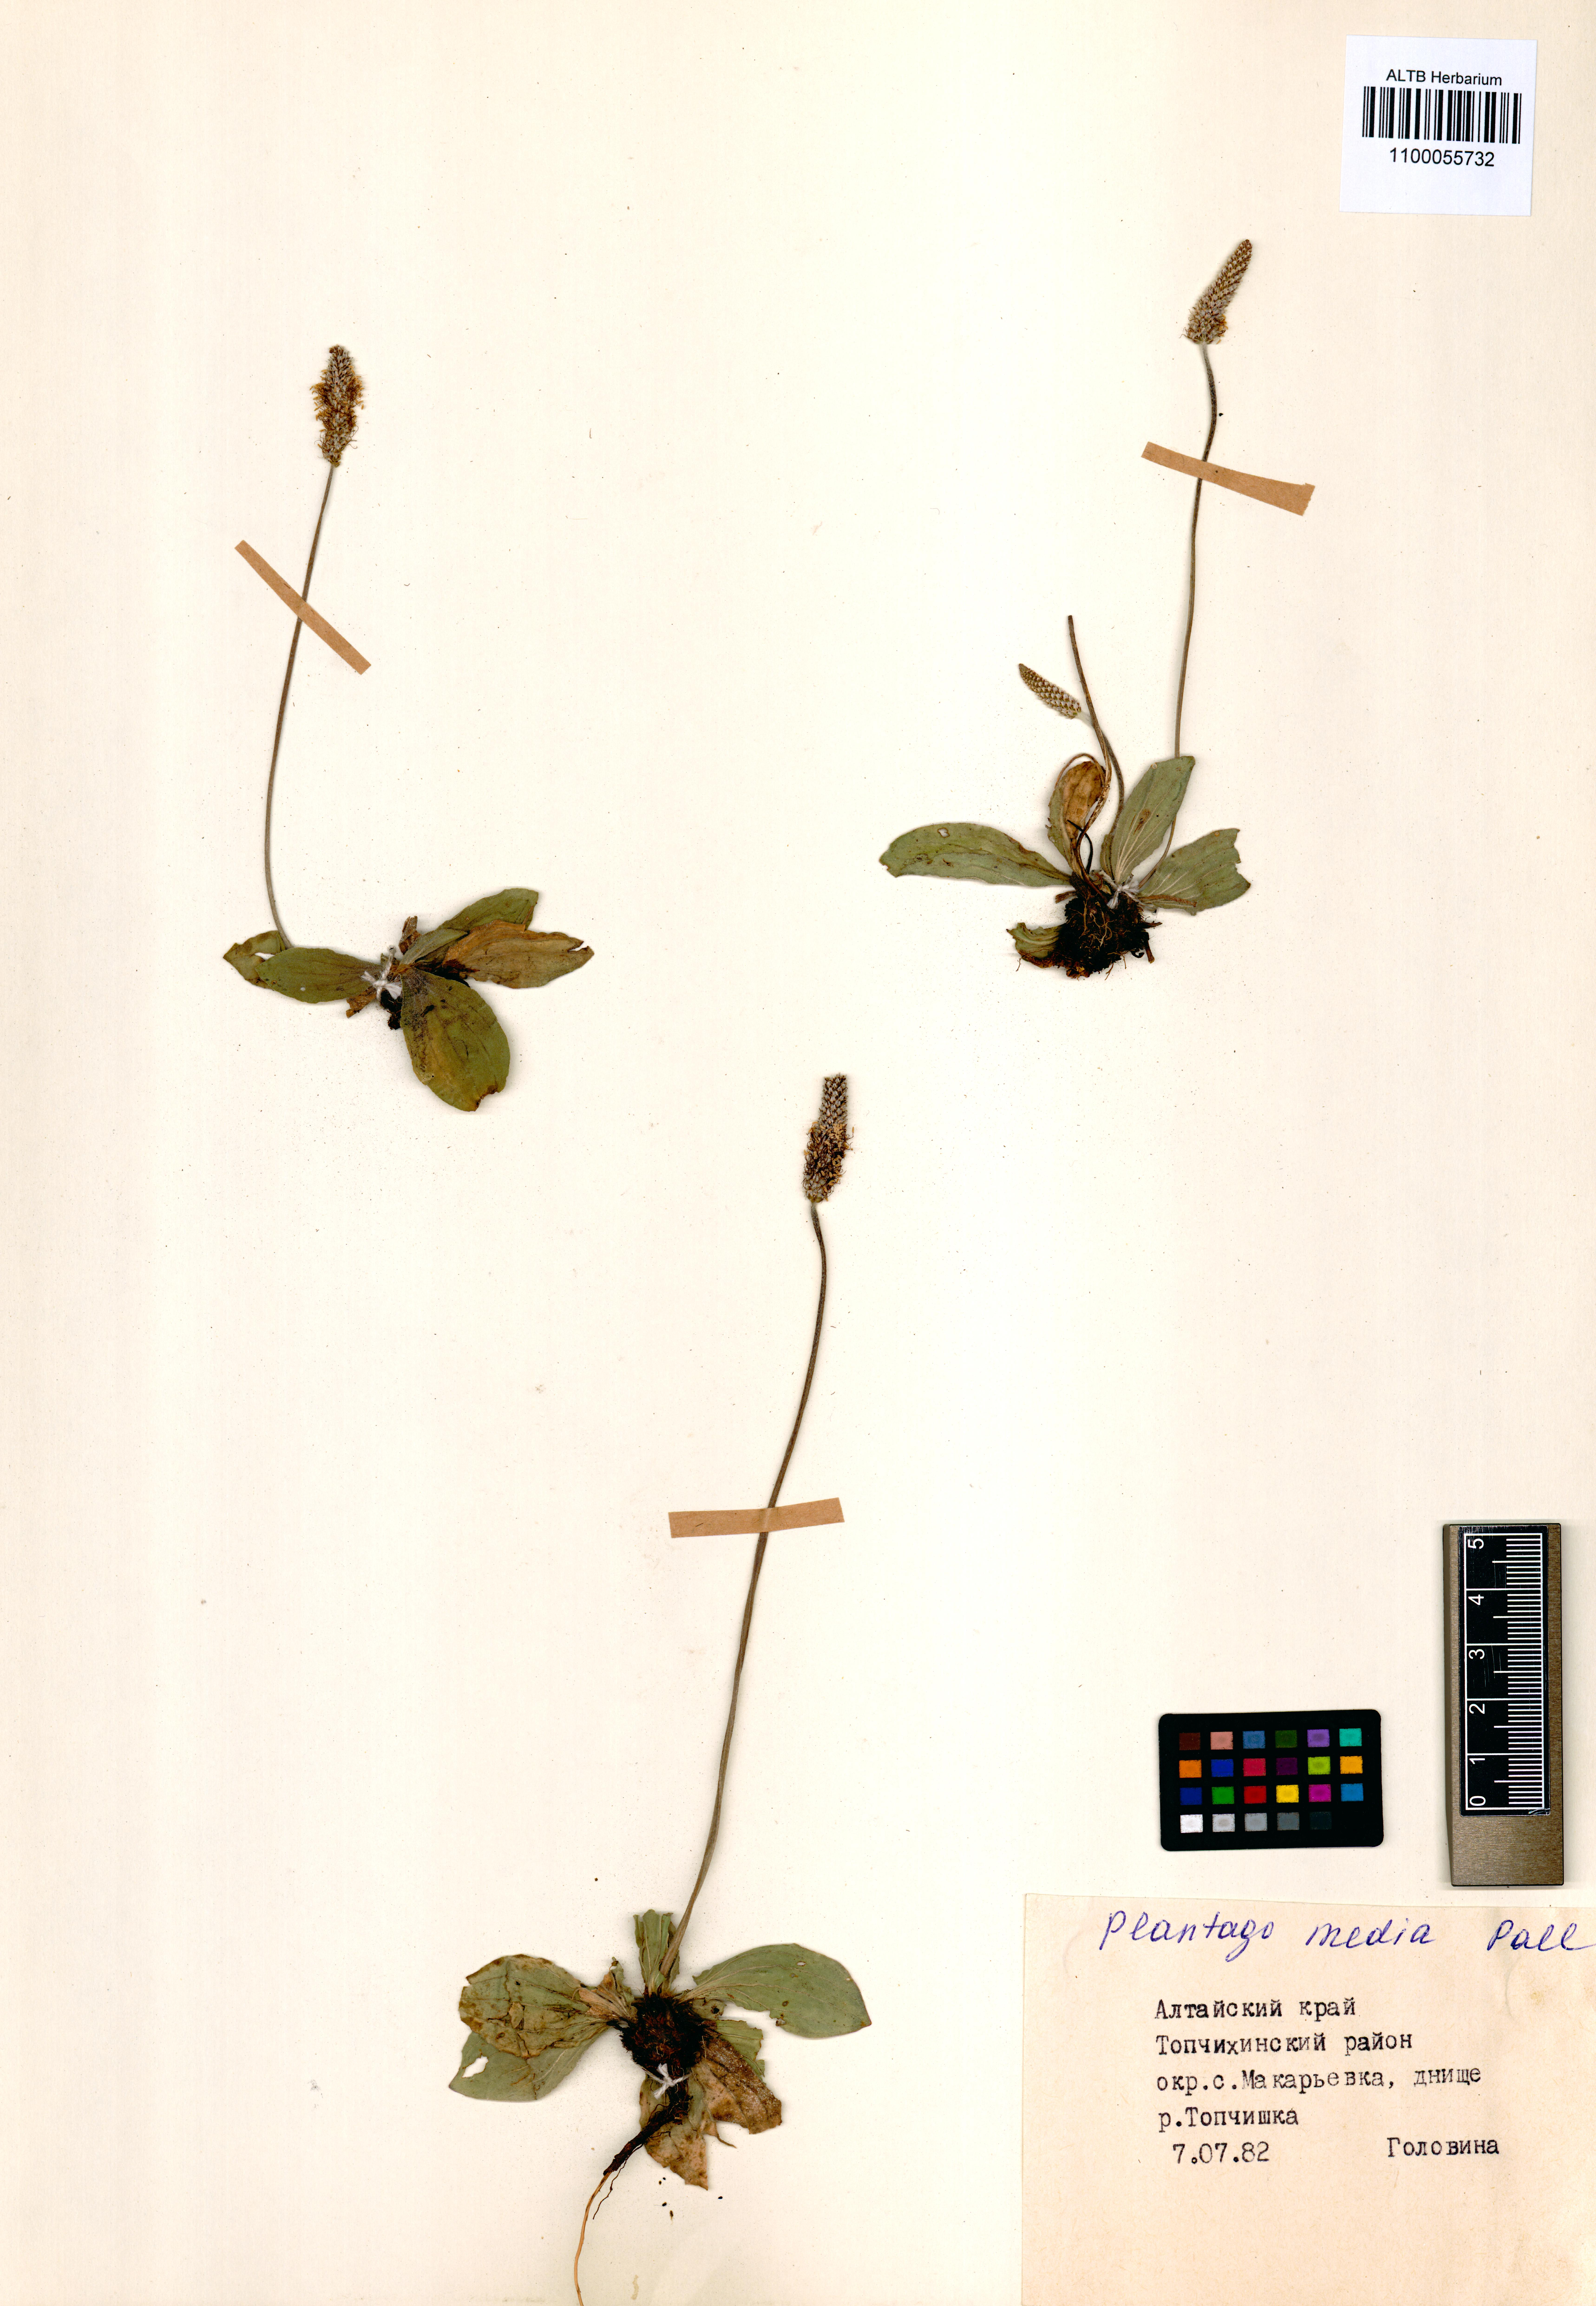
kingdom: Plantae
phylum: Tracheophyta
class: Magnoliopsida
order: Lamiales
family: Plantaginaceae
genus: Plantago
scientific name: Plantago media
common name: Hoary plantain
